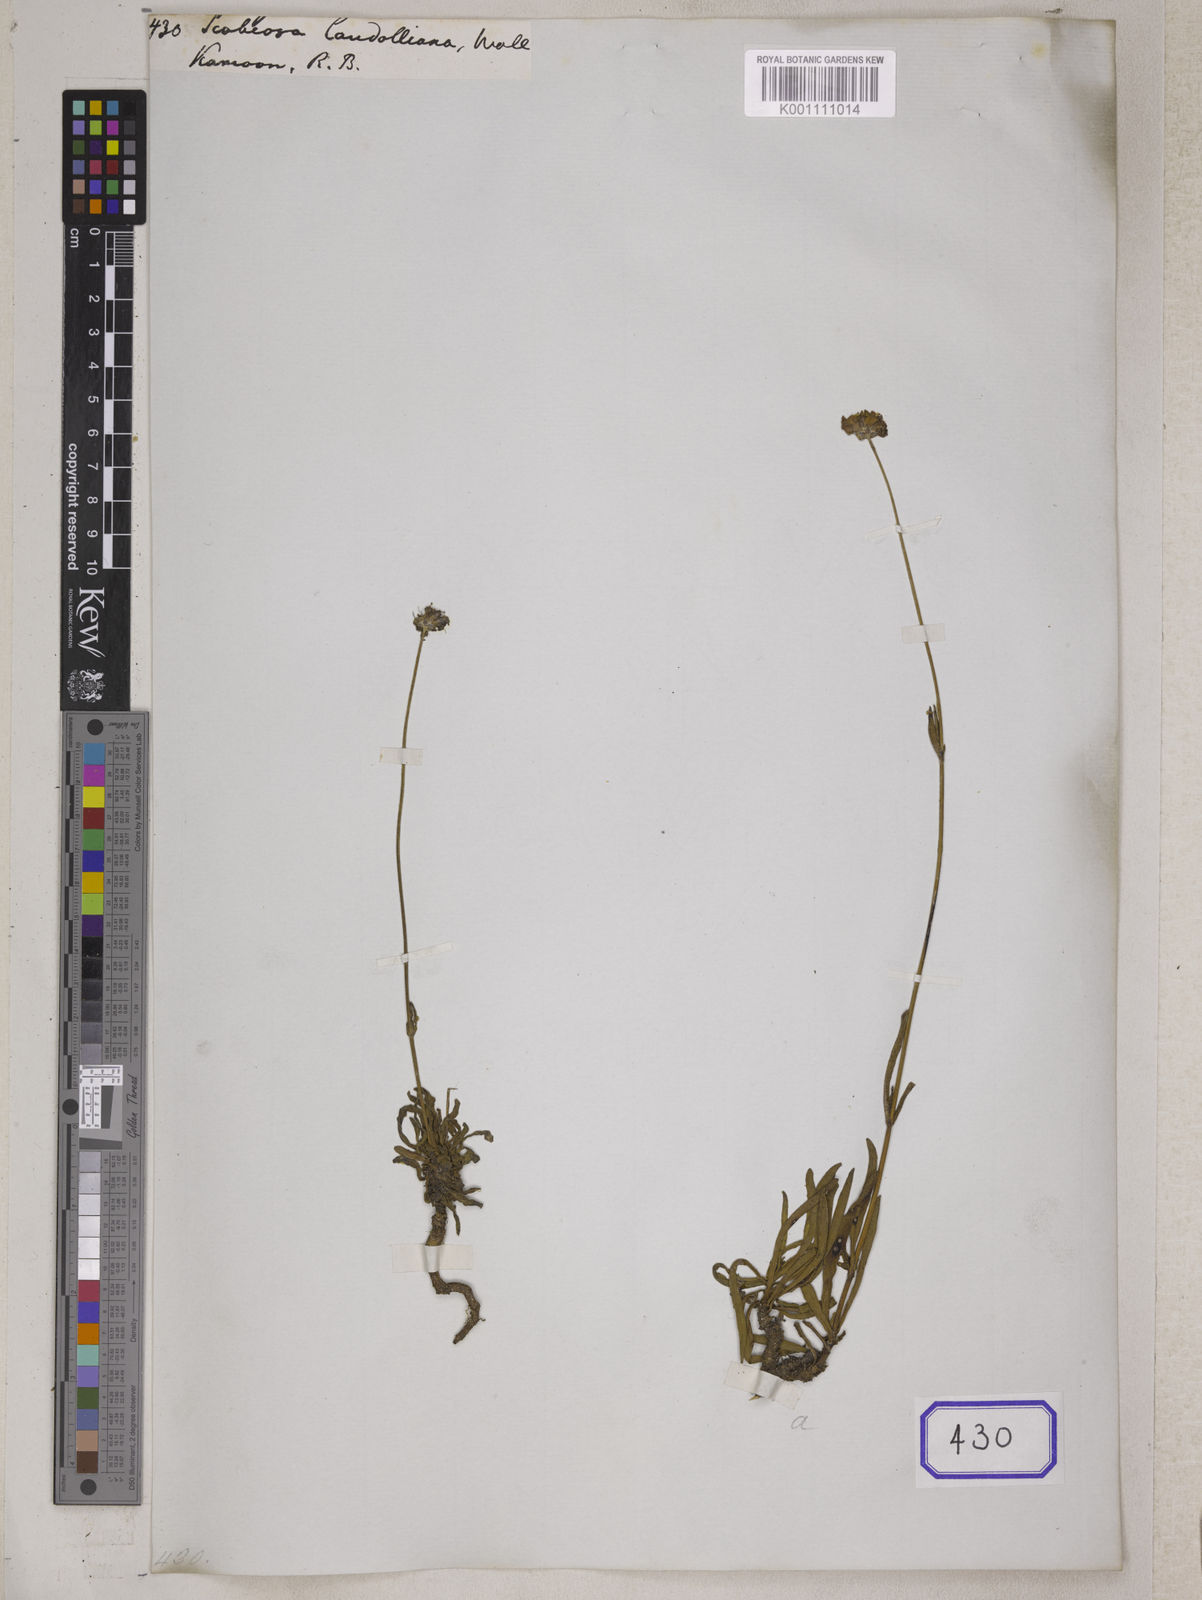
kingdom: Plantae
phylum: Tracheophyta
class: Magnoliopsida
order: Dipsacales
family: Caprifoliaceae
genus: Lomelosia
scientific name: Lomelosia candollei
